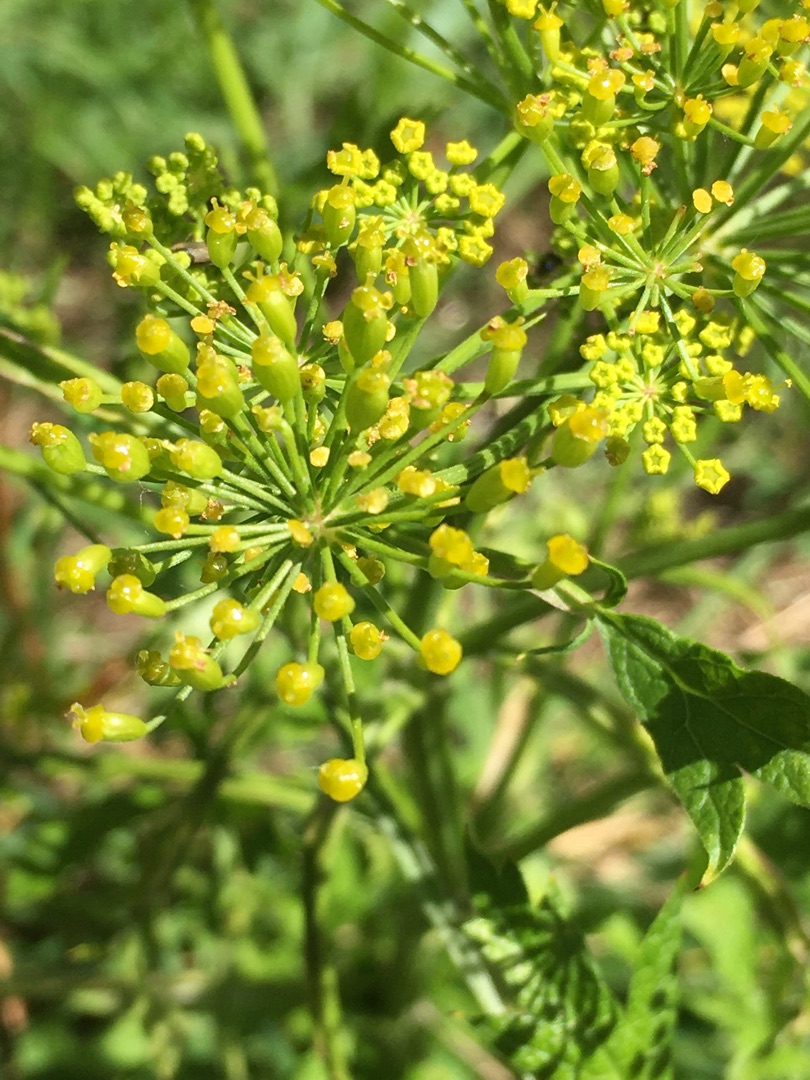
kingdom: Plantae
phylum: Tracheophyta
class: Magnoliopsida
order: Apiales
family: Apiaceae
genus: Pastinaca
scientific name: Pastinaca sativa
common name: Pastinak
